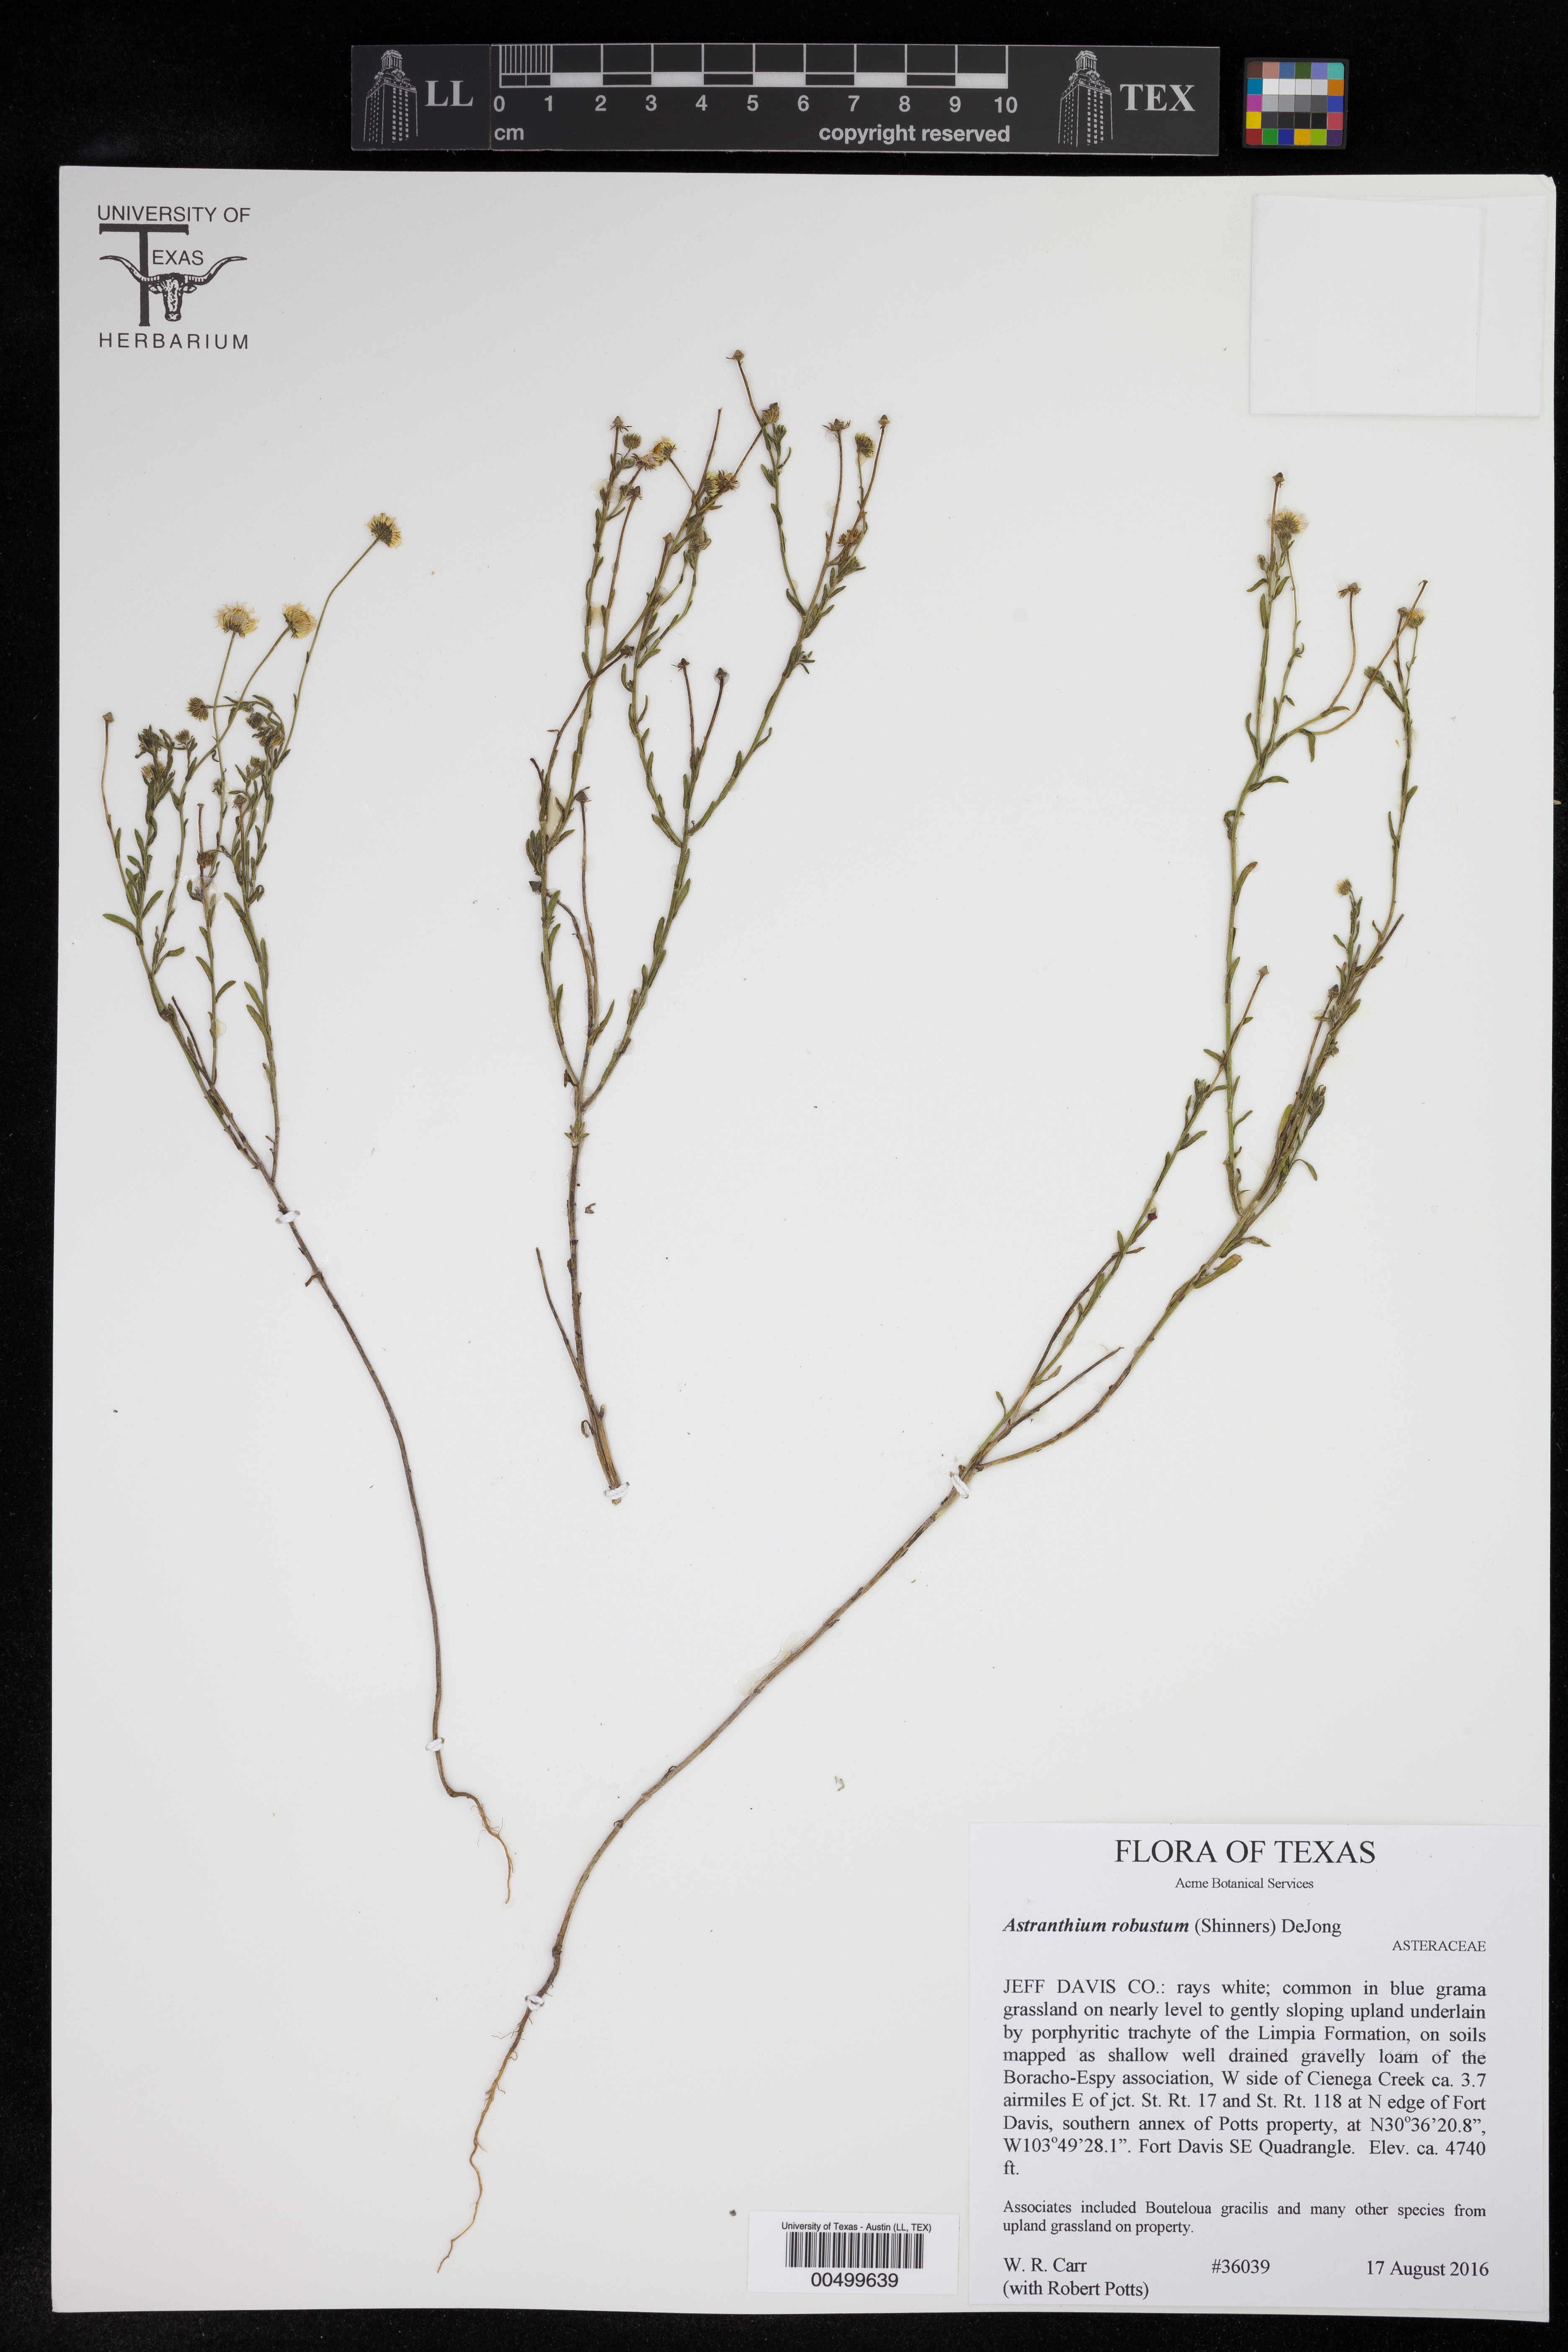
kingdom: Plantae
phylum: Tracheophyta
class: Magnoliopsida
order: Asterales
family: Asteraceae
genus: Astranthium
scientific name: Astranthium robustum
